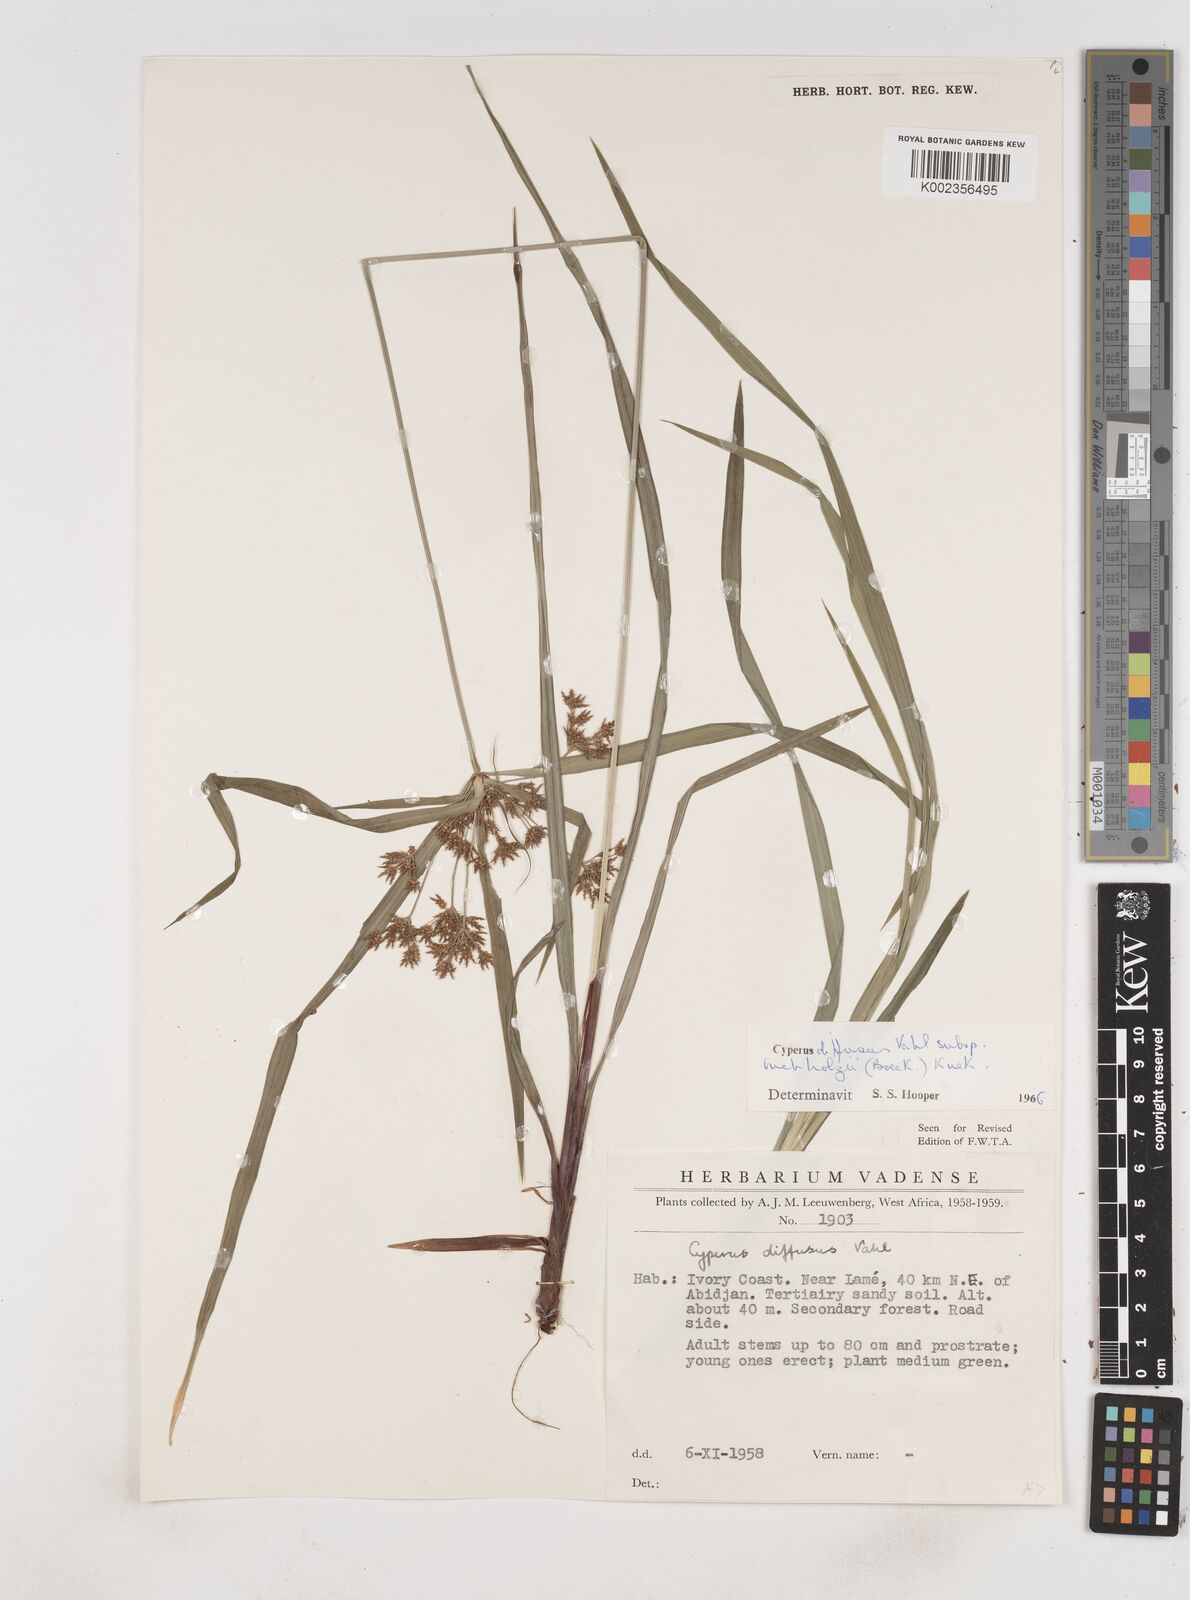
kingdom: Plantae
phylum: Tracheophyta
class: Liliopsida
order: Poales
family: Cyperaceae
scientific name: Cyperaceae
